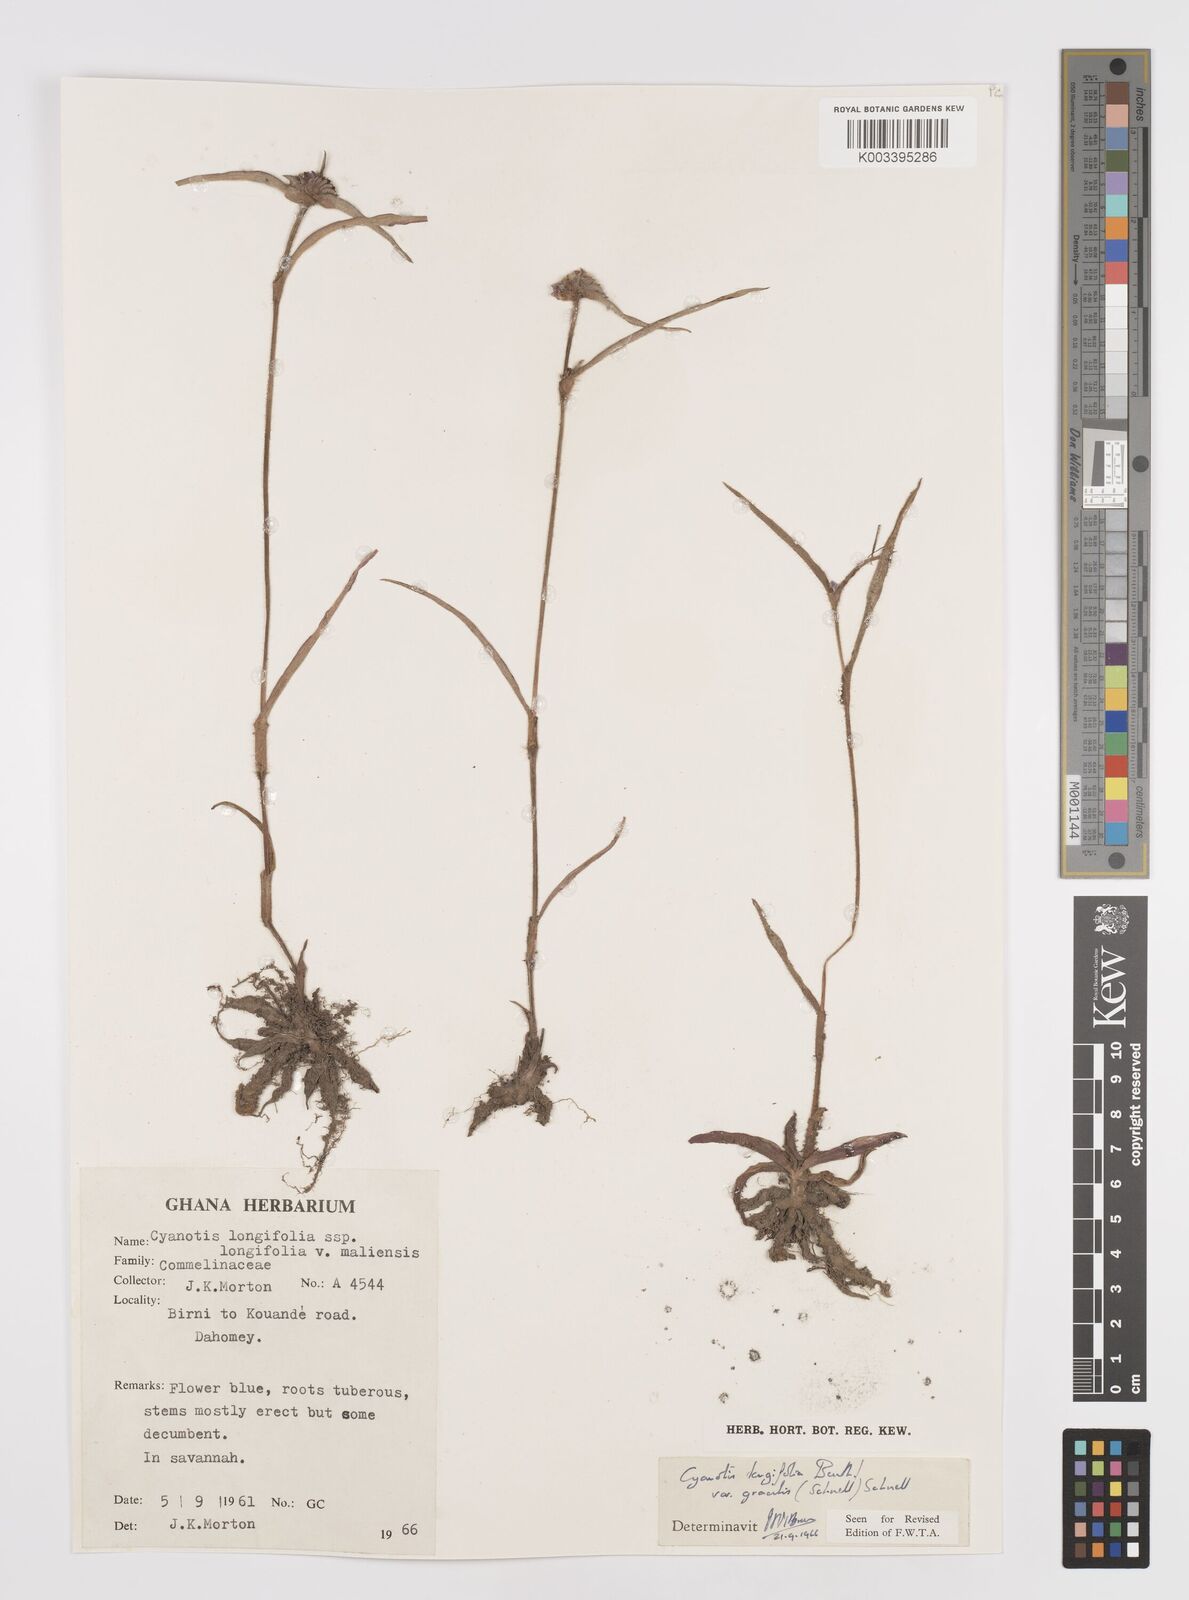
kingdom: Plantae
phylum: Tracheophyta
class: Liliopsida
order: Commelinales
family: Commelinaceae
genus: Cyanotis
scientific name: Cyanotis longifolia
